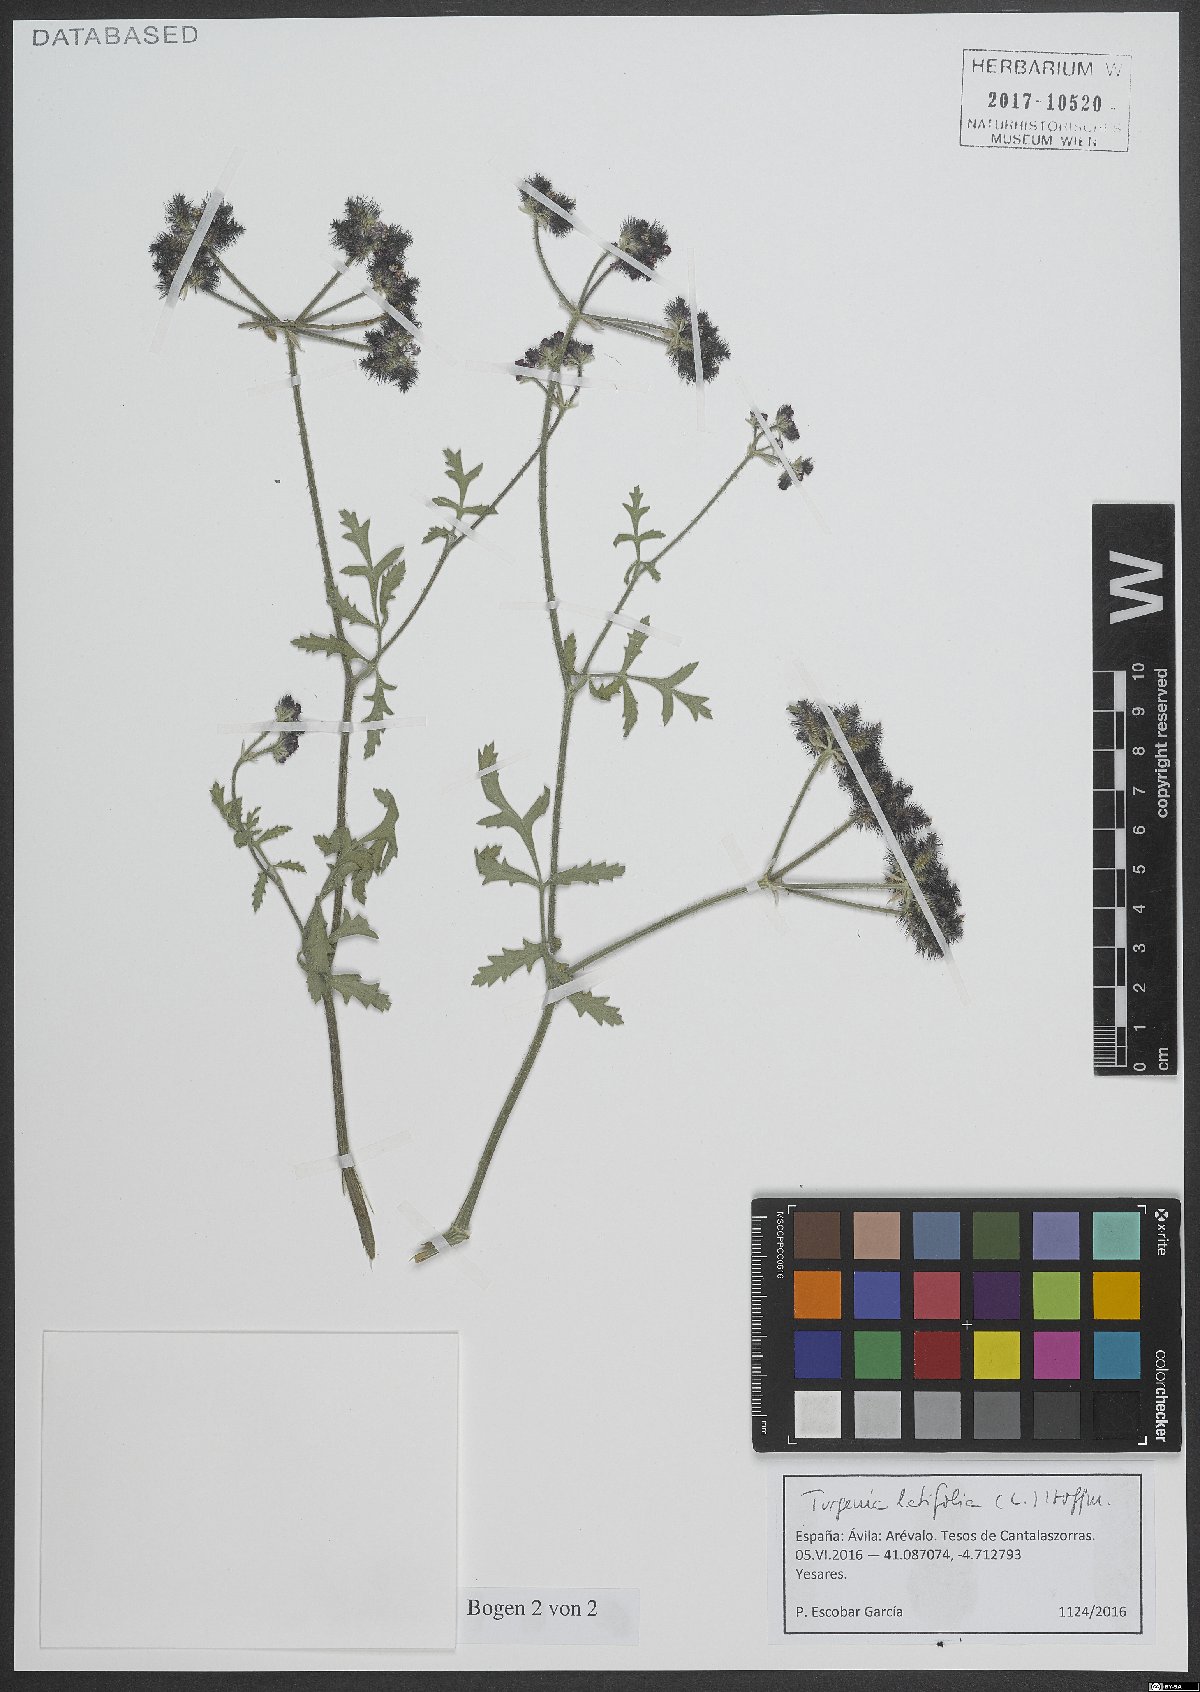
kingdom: Plantae
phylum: Tracheophyta
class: Magnoliopsida
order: Apiales
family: Apiaceae
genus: Turgenia
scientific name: Turgenia latifolia
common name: Greater bur-parsley
